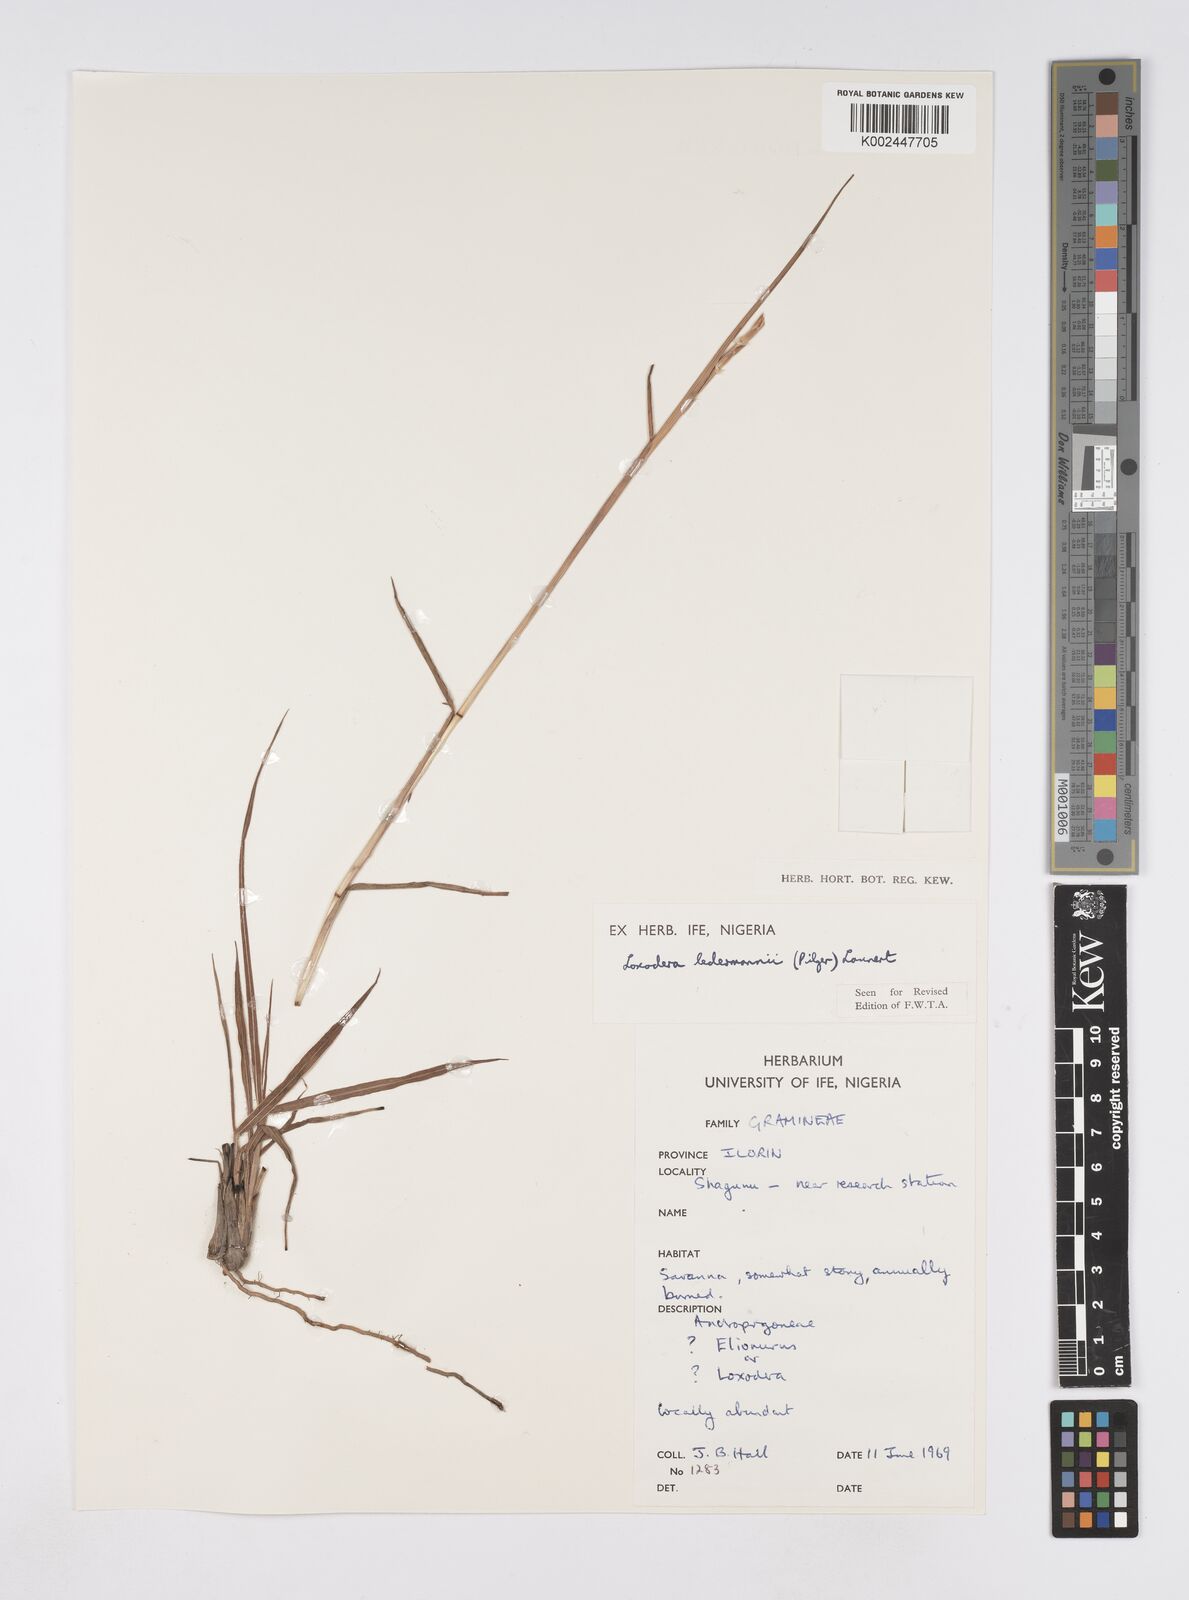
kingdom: Plantae
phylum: Tracheophyta
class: Liliopsida
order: Poales
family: Poaceae
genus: Loxodera
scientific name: Loxodera ledermannii
